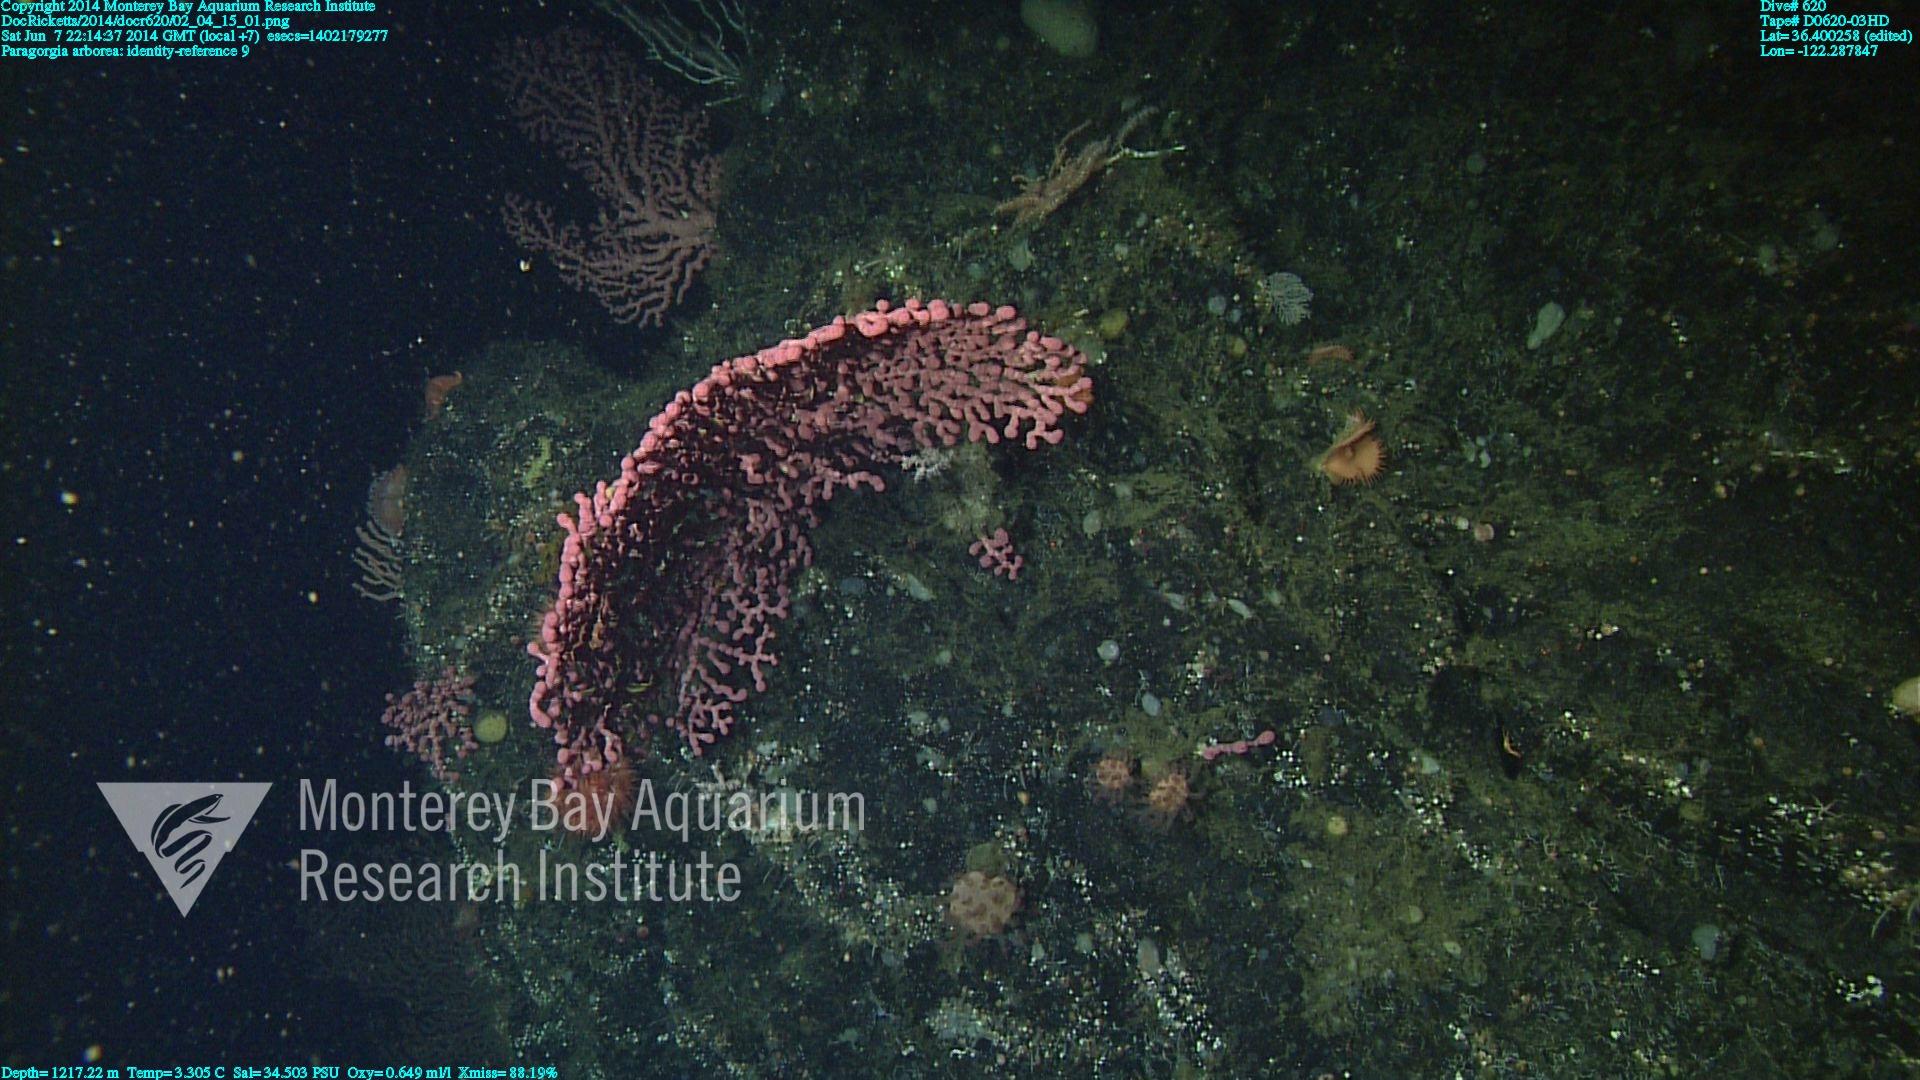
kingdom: Animalia
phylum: Cnidaria
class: Anthozoa
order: Scleralcyonacea
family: Coralliidae
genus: Paragorgia
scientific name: Paragorgia arborea
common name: Bubble gum coral
